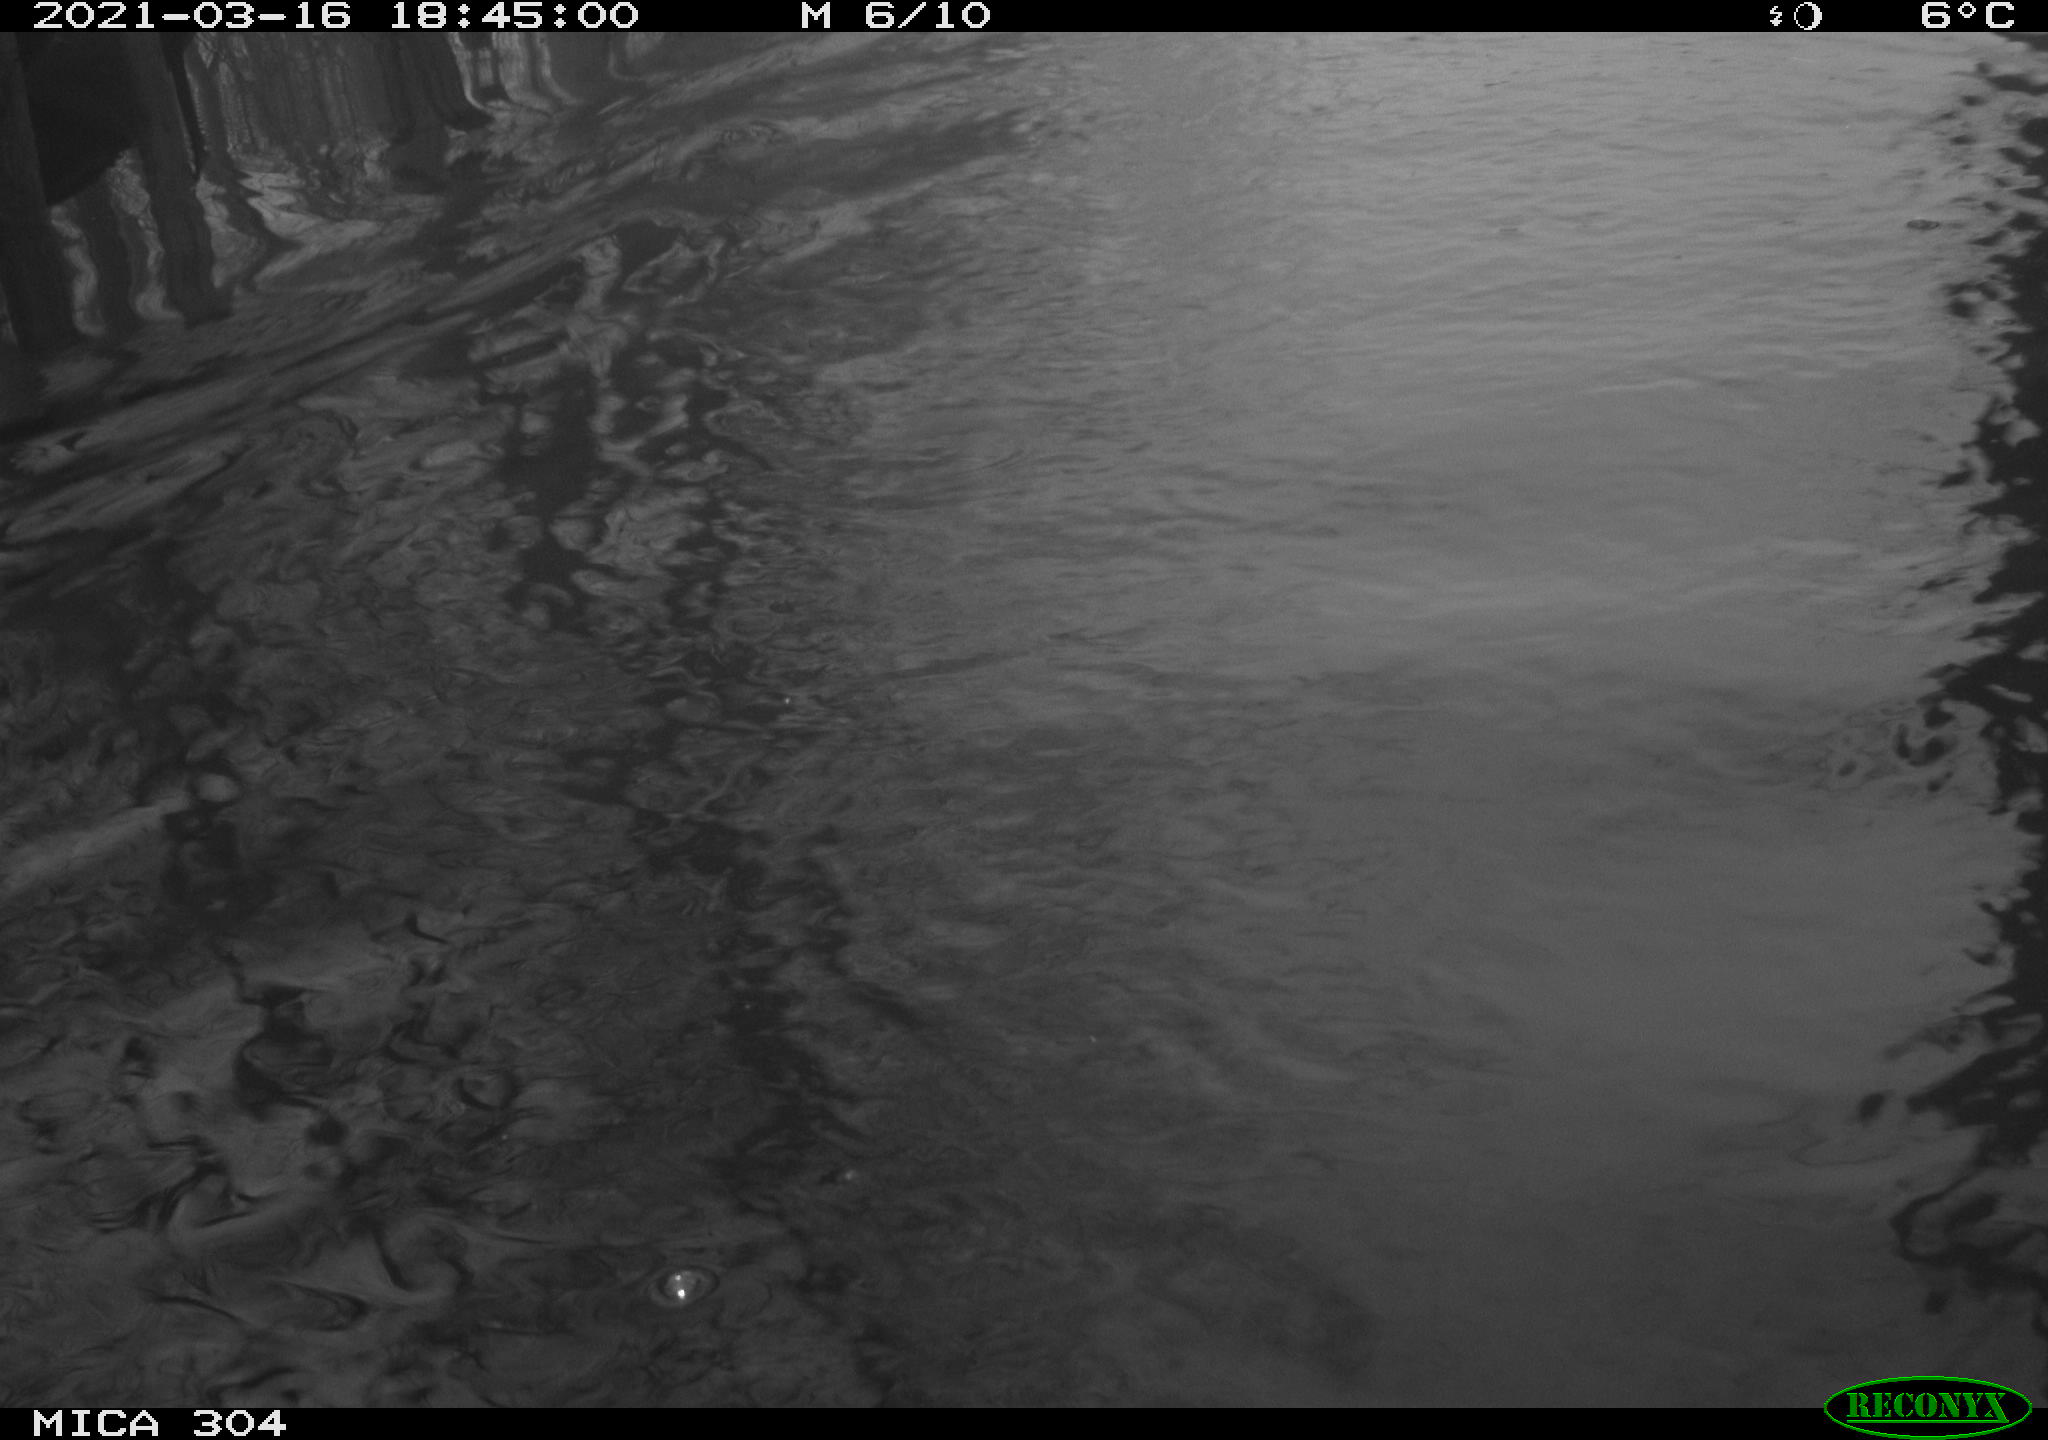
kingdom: Animalia
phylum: Chordata
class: Aves
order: Anseriformes
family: Anatidae
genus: Anas
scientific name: Anas platyrhynchos
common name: Mallard
